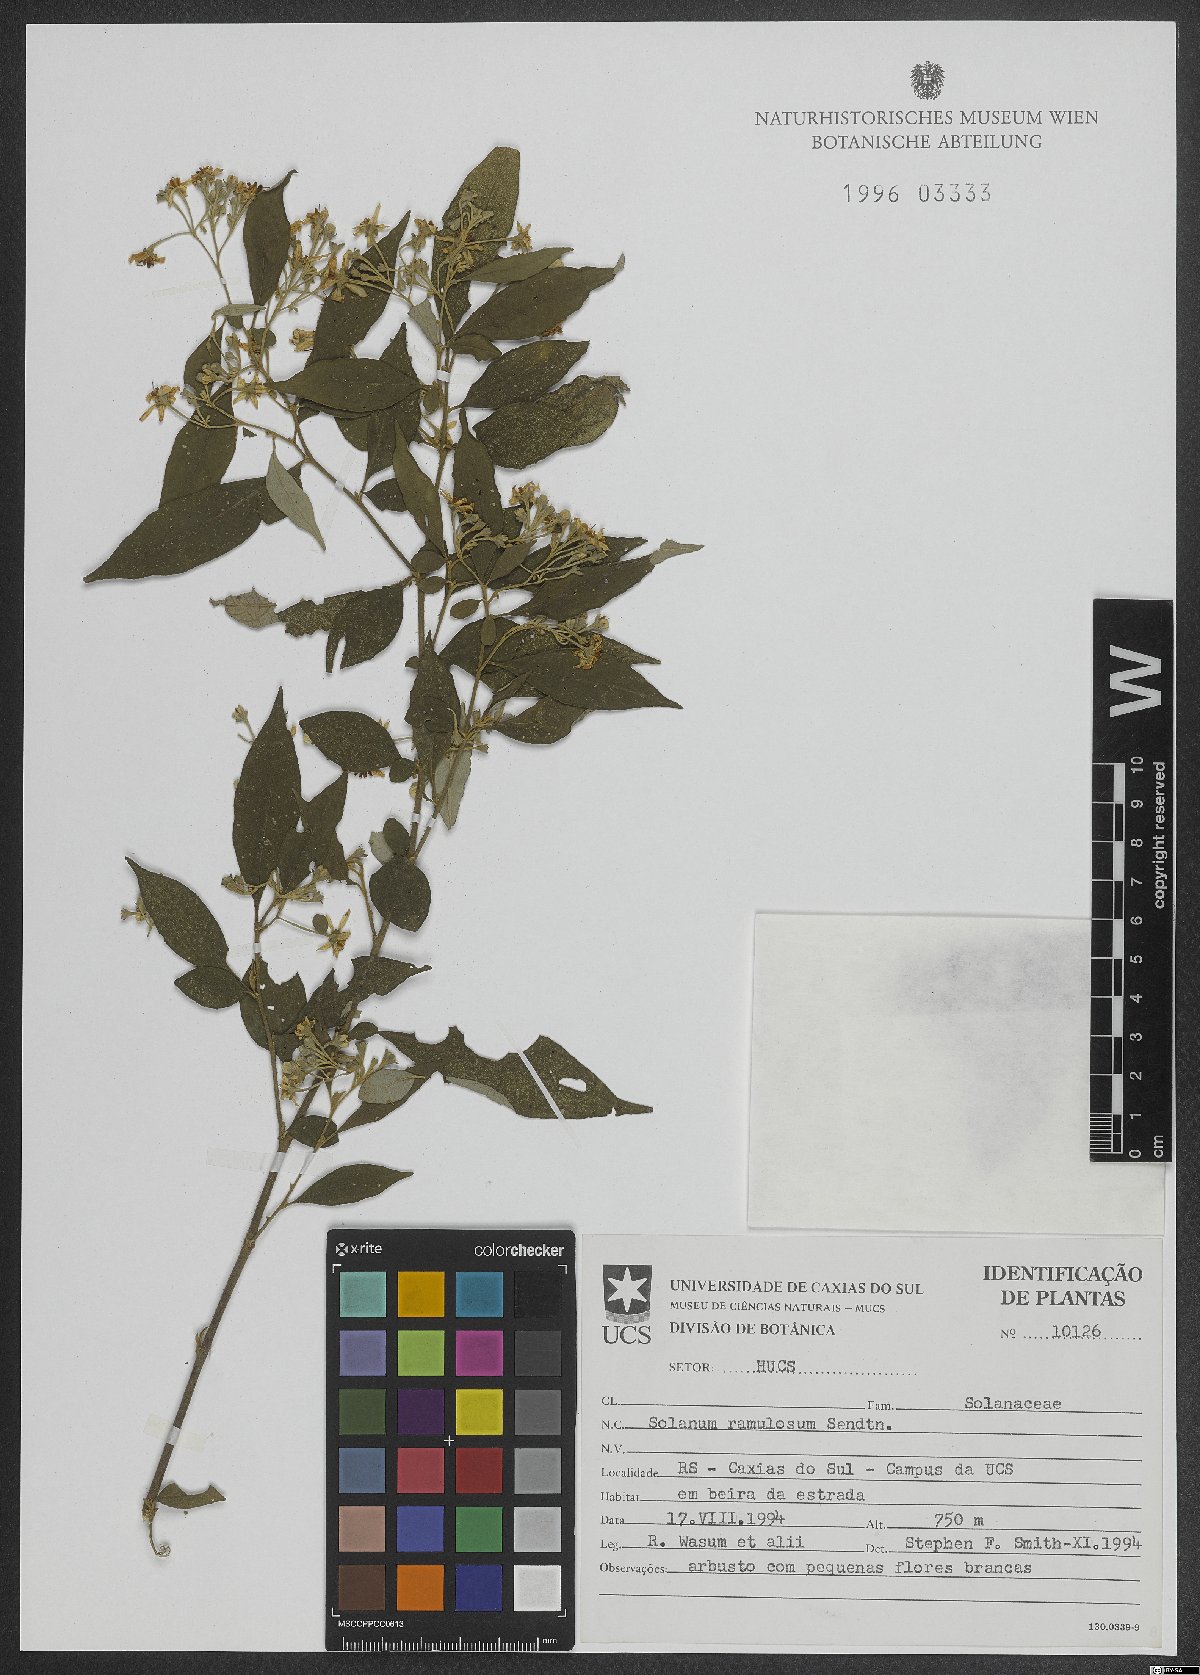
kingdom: Plantae
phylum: Tracheophyta
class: Magnoliopsida
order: Solanales
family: Solanaceae
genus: Solanum
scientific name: Solanum ramulosum
